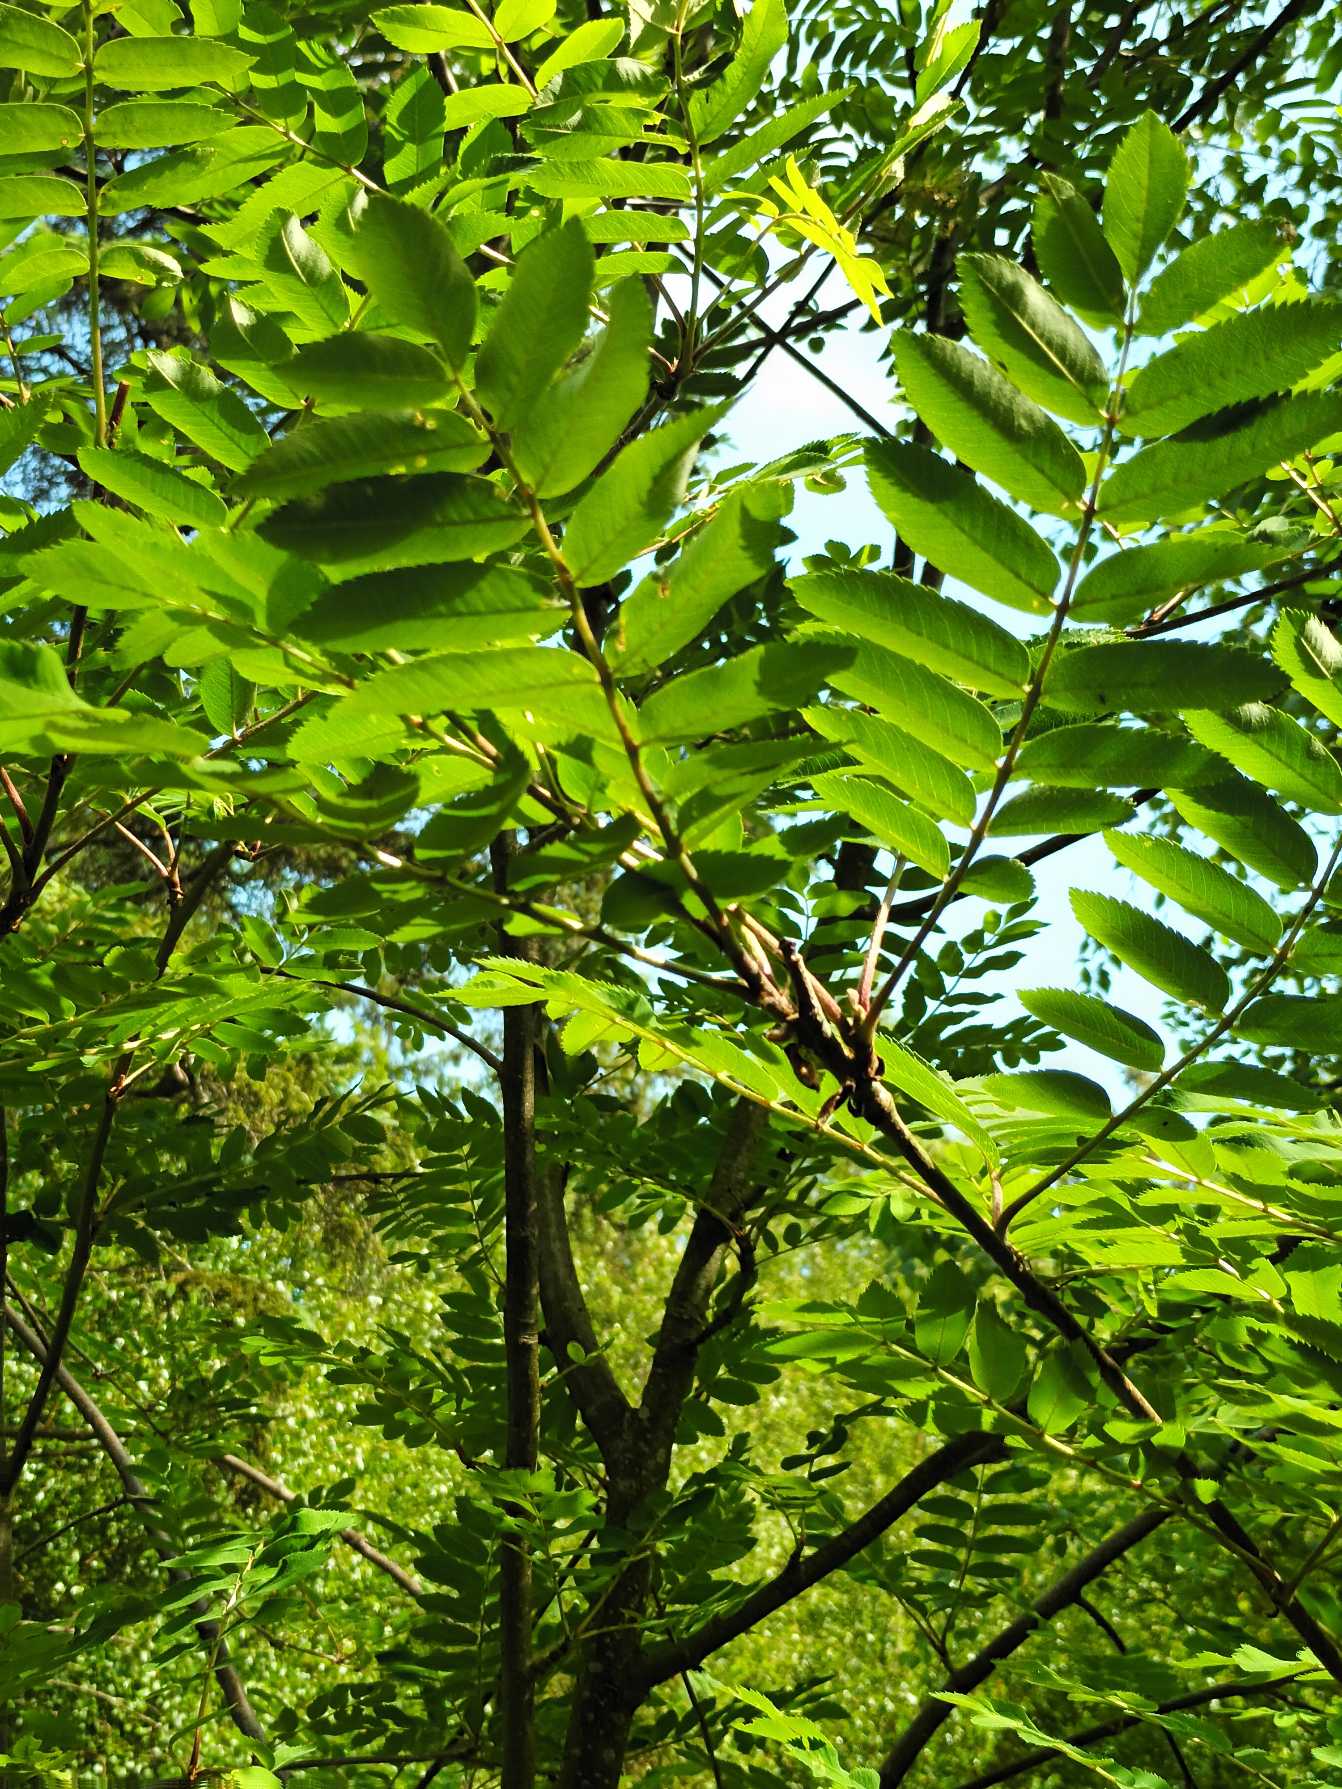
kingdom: Plantae
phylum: Tracheophyta
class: Magnoliopsida
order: Rosales
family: Rosaceae
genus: Sorbus
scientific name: Sorbus aucuparia
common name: Almindelig røn
